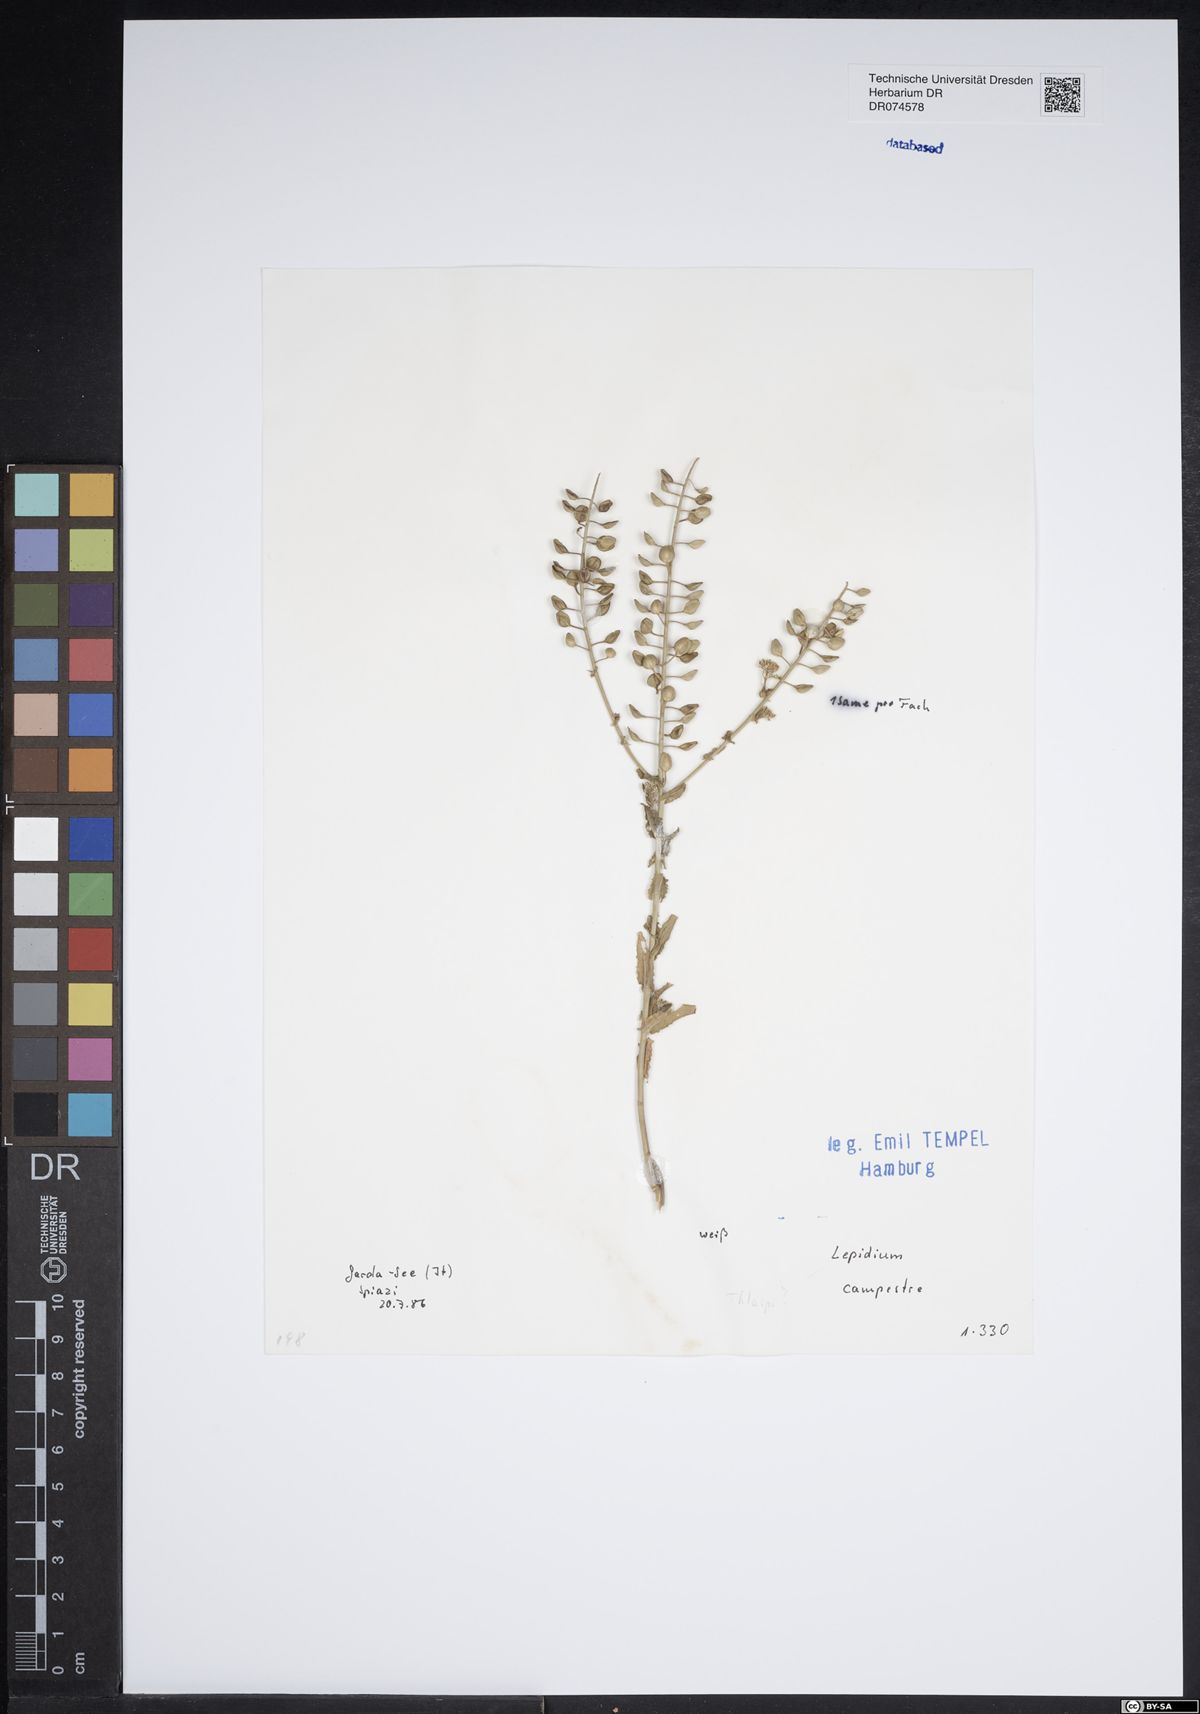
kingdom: Plantae
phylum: Tracheophyta
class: Magnoliopsida
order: Brassicales
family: Brassicaceae
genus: Lepidium
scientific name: Lepidium campestre
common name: Field pepperwort
